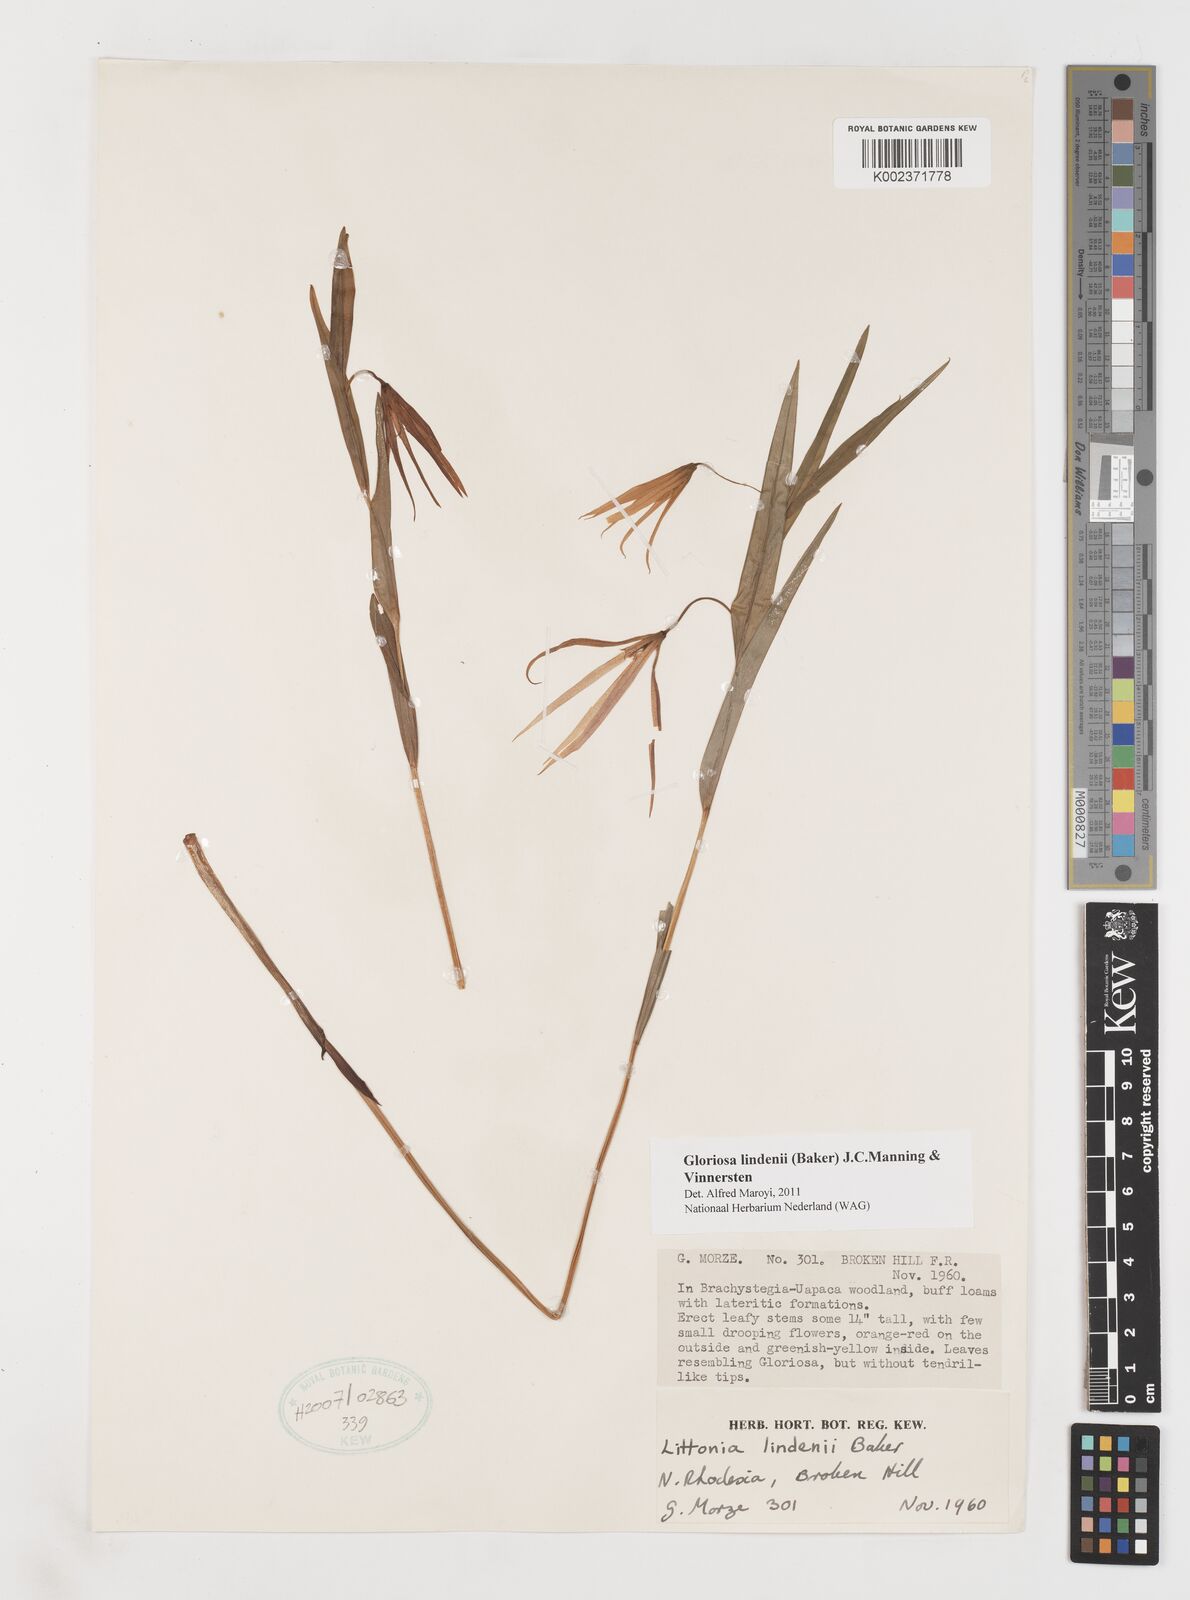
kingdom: Plantae
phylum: Tracheophyta
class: Liliopsida
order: Liliales
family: Colchicaceae
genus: Gloriosa
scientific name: Gloriosa lindenii
